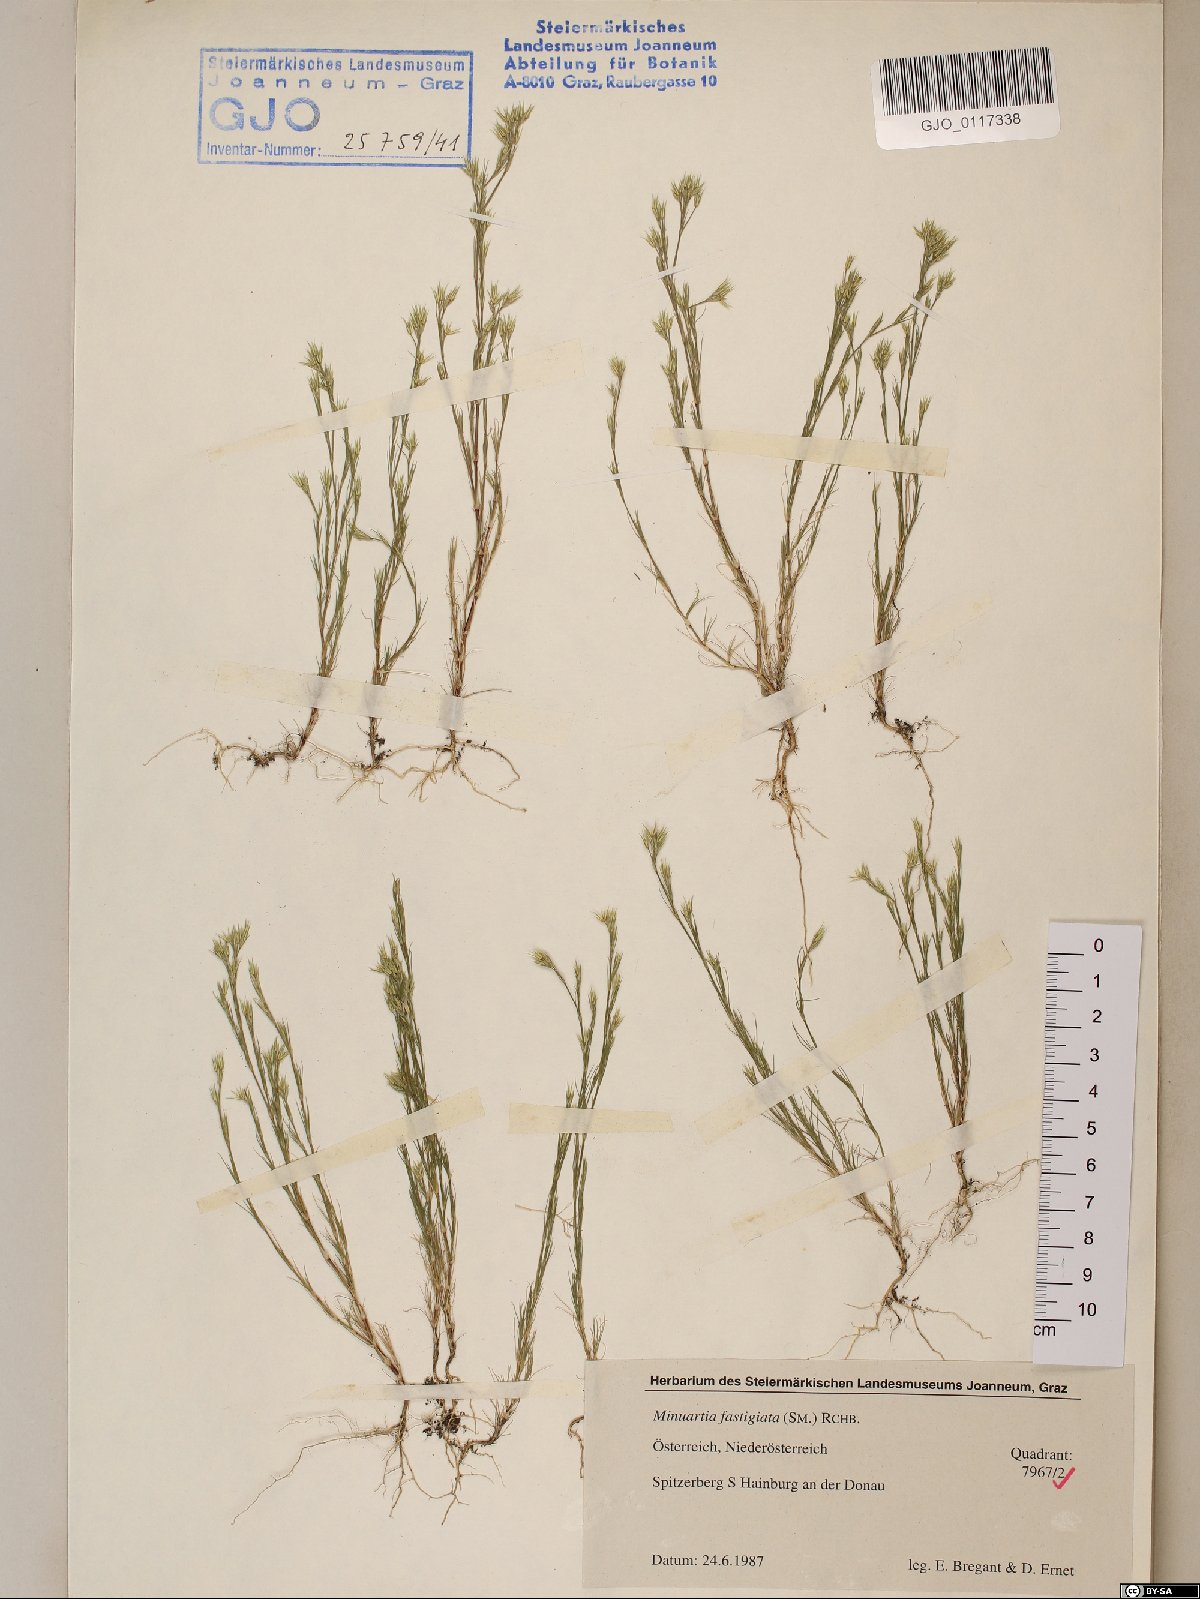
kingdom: Plantae
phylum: Tracheophyta
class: Magnoliopsida
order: Caryophyllales
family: Caryophyllaceae
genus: Minuartia
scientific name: Minuartia mucronata
